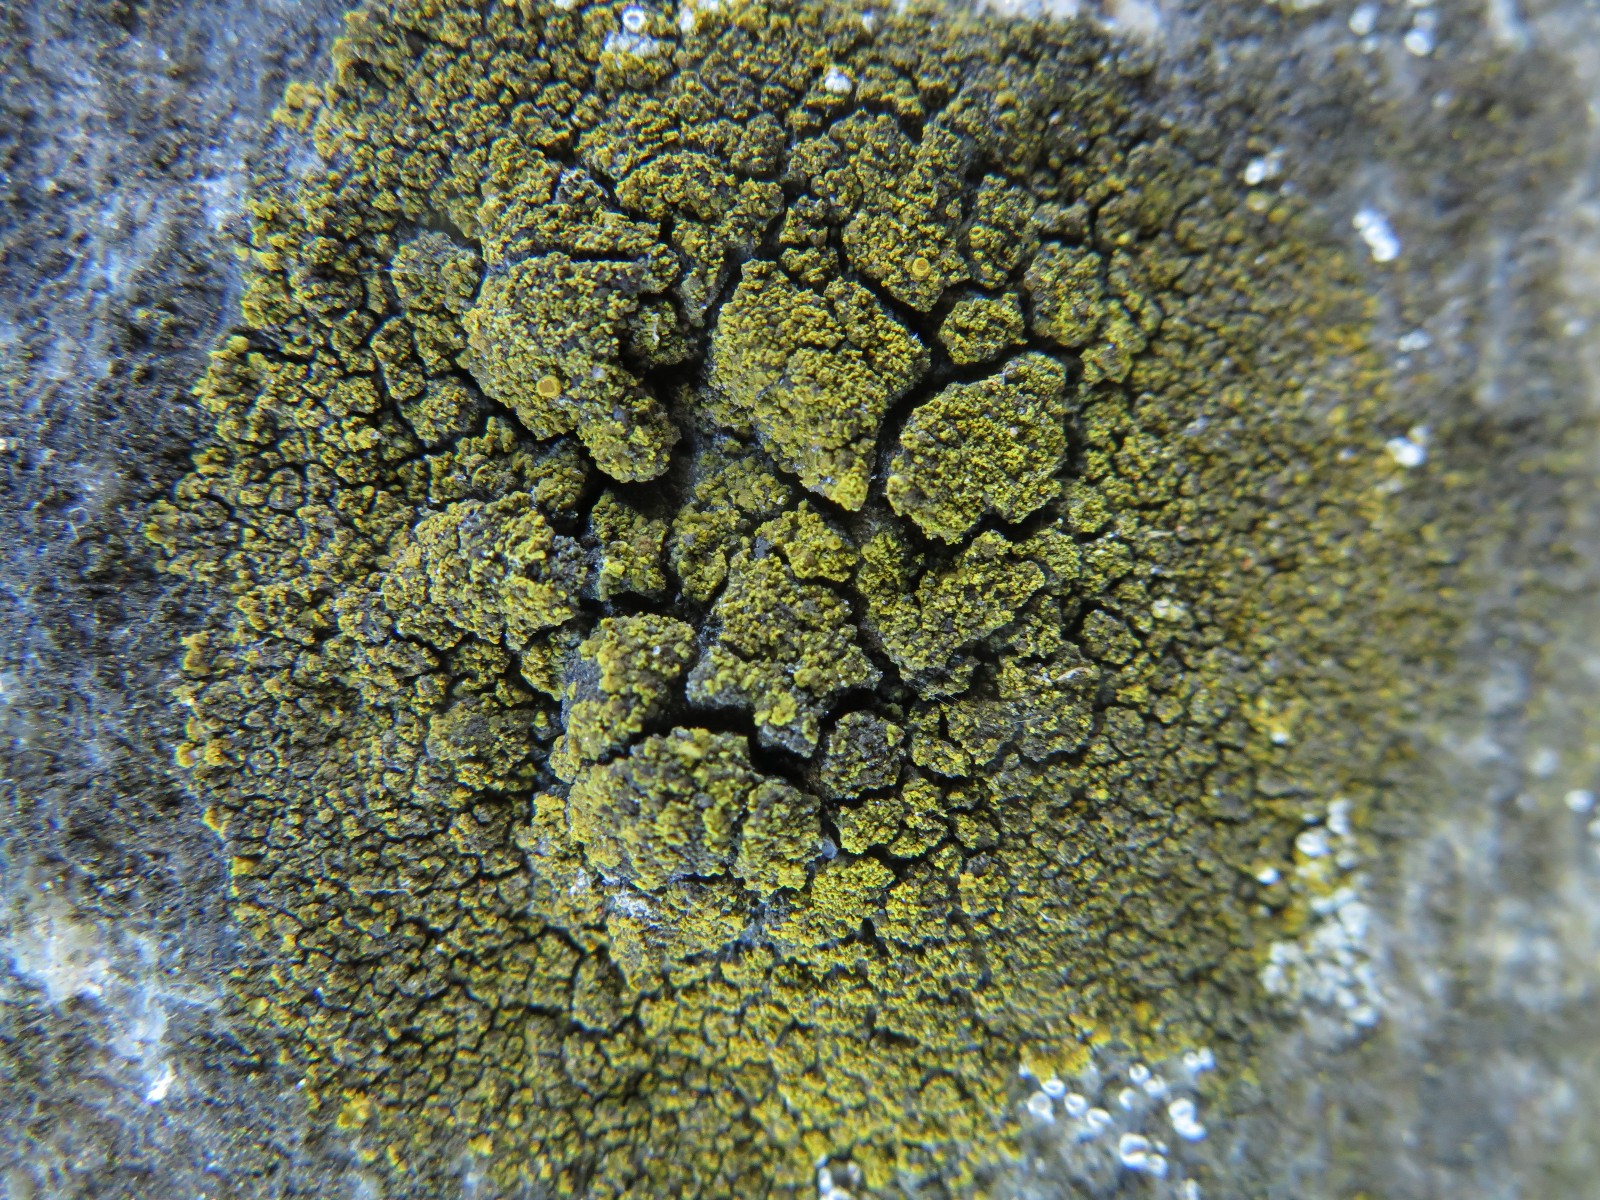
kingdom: Fungi
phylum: Ascomycota
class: Candelariomycetes
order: Candelariales
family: Candelariaceae
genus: Candelariella
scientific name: Candelariella vitellina
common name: almindelig æggeblommelav
